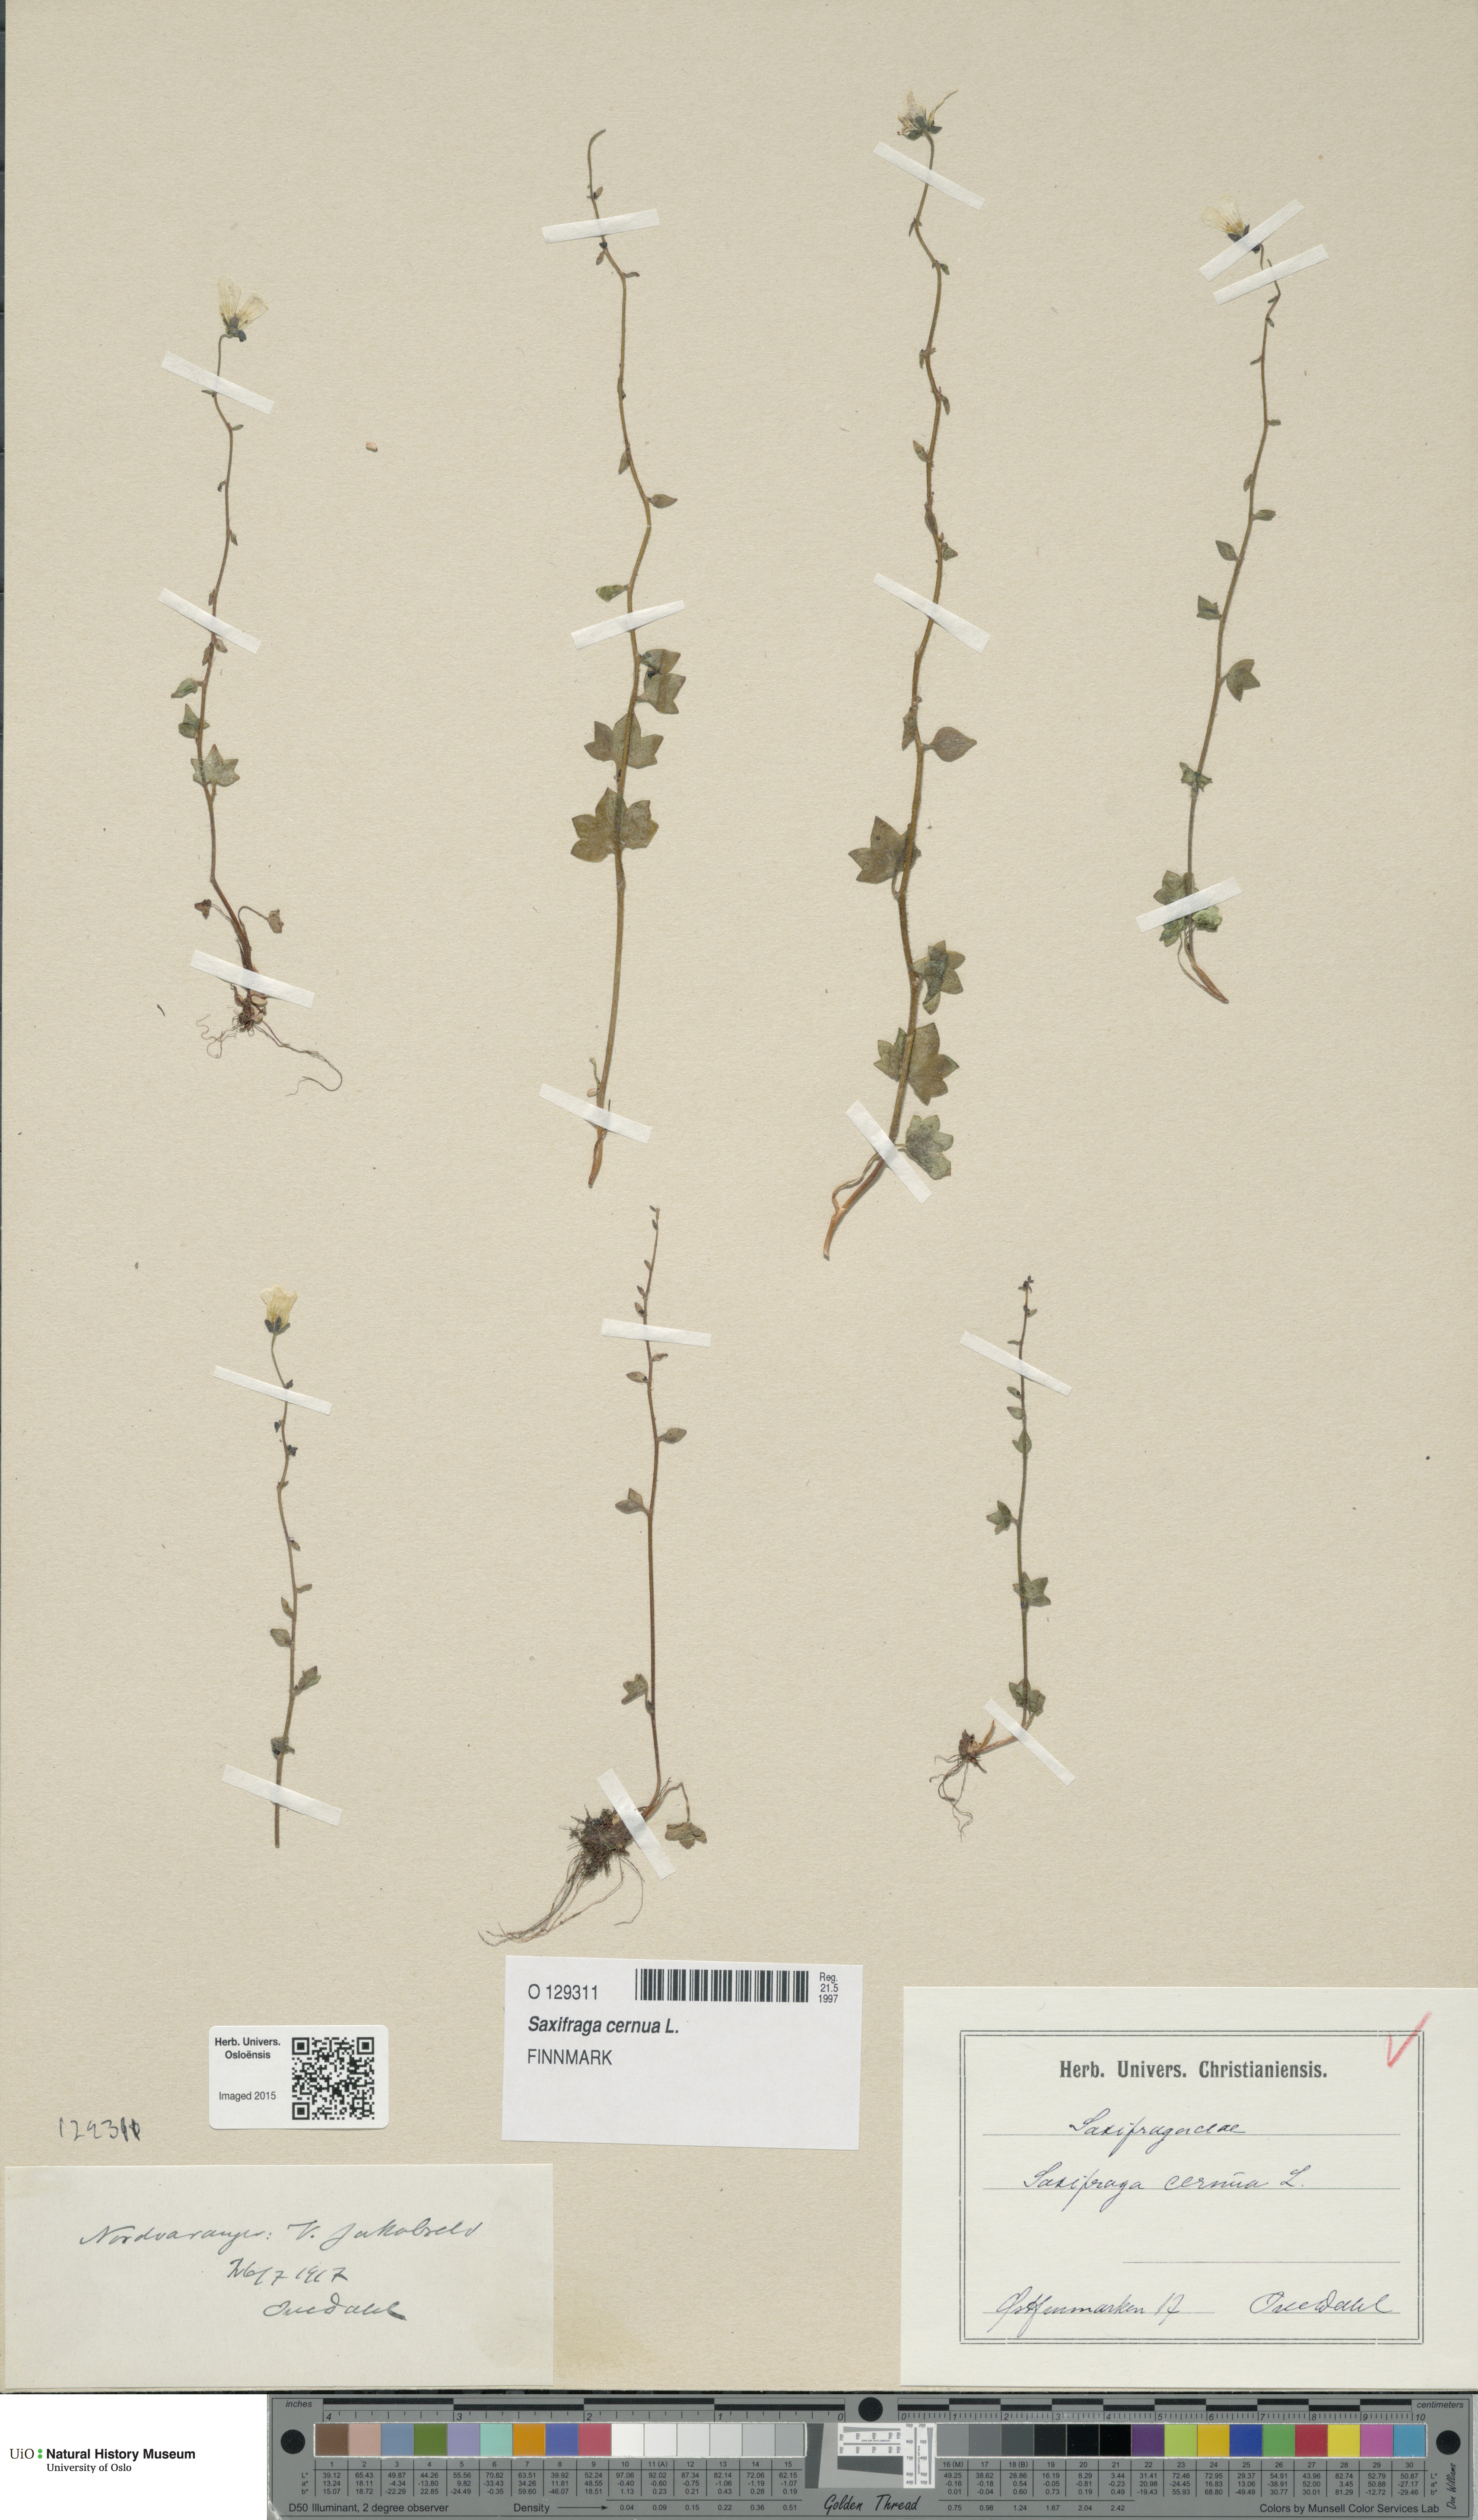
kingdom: Plantae
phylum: Tracheophyta
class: Magnoliopsida
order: Saxifragales
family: Saxifragaceae
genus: Saxifraga
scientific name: Saxifraga cernua
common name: Drooping saxifrage
